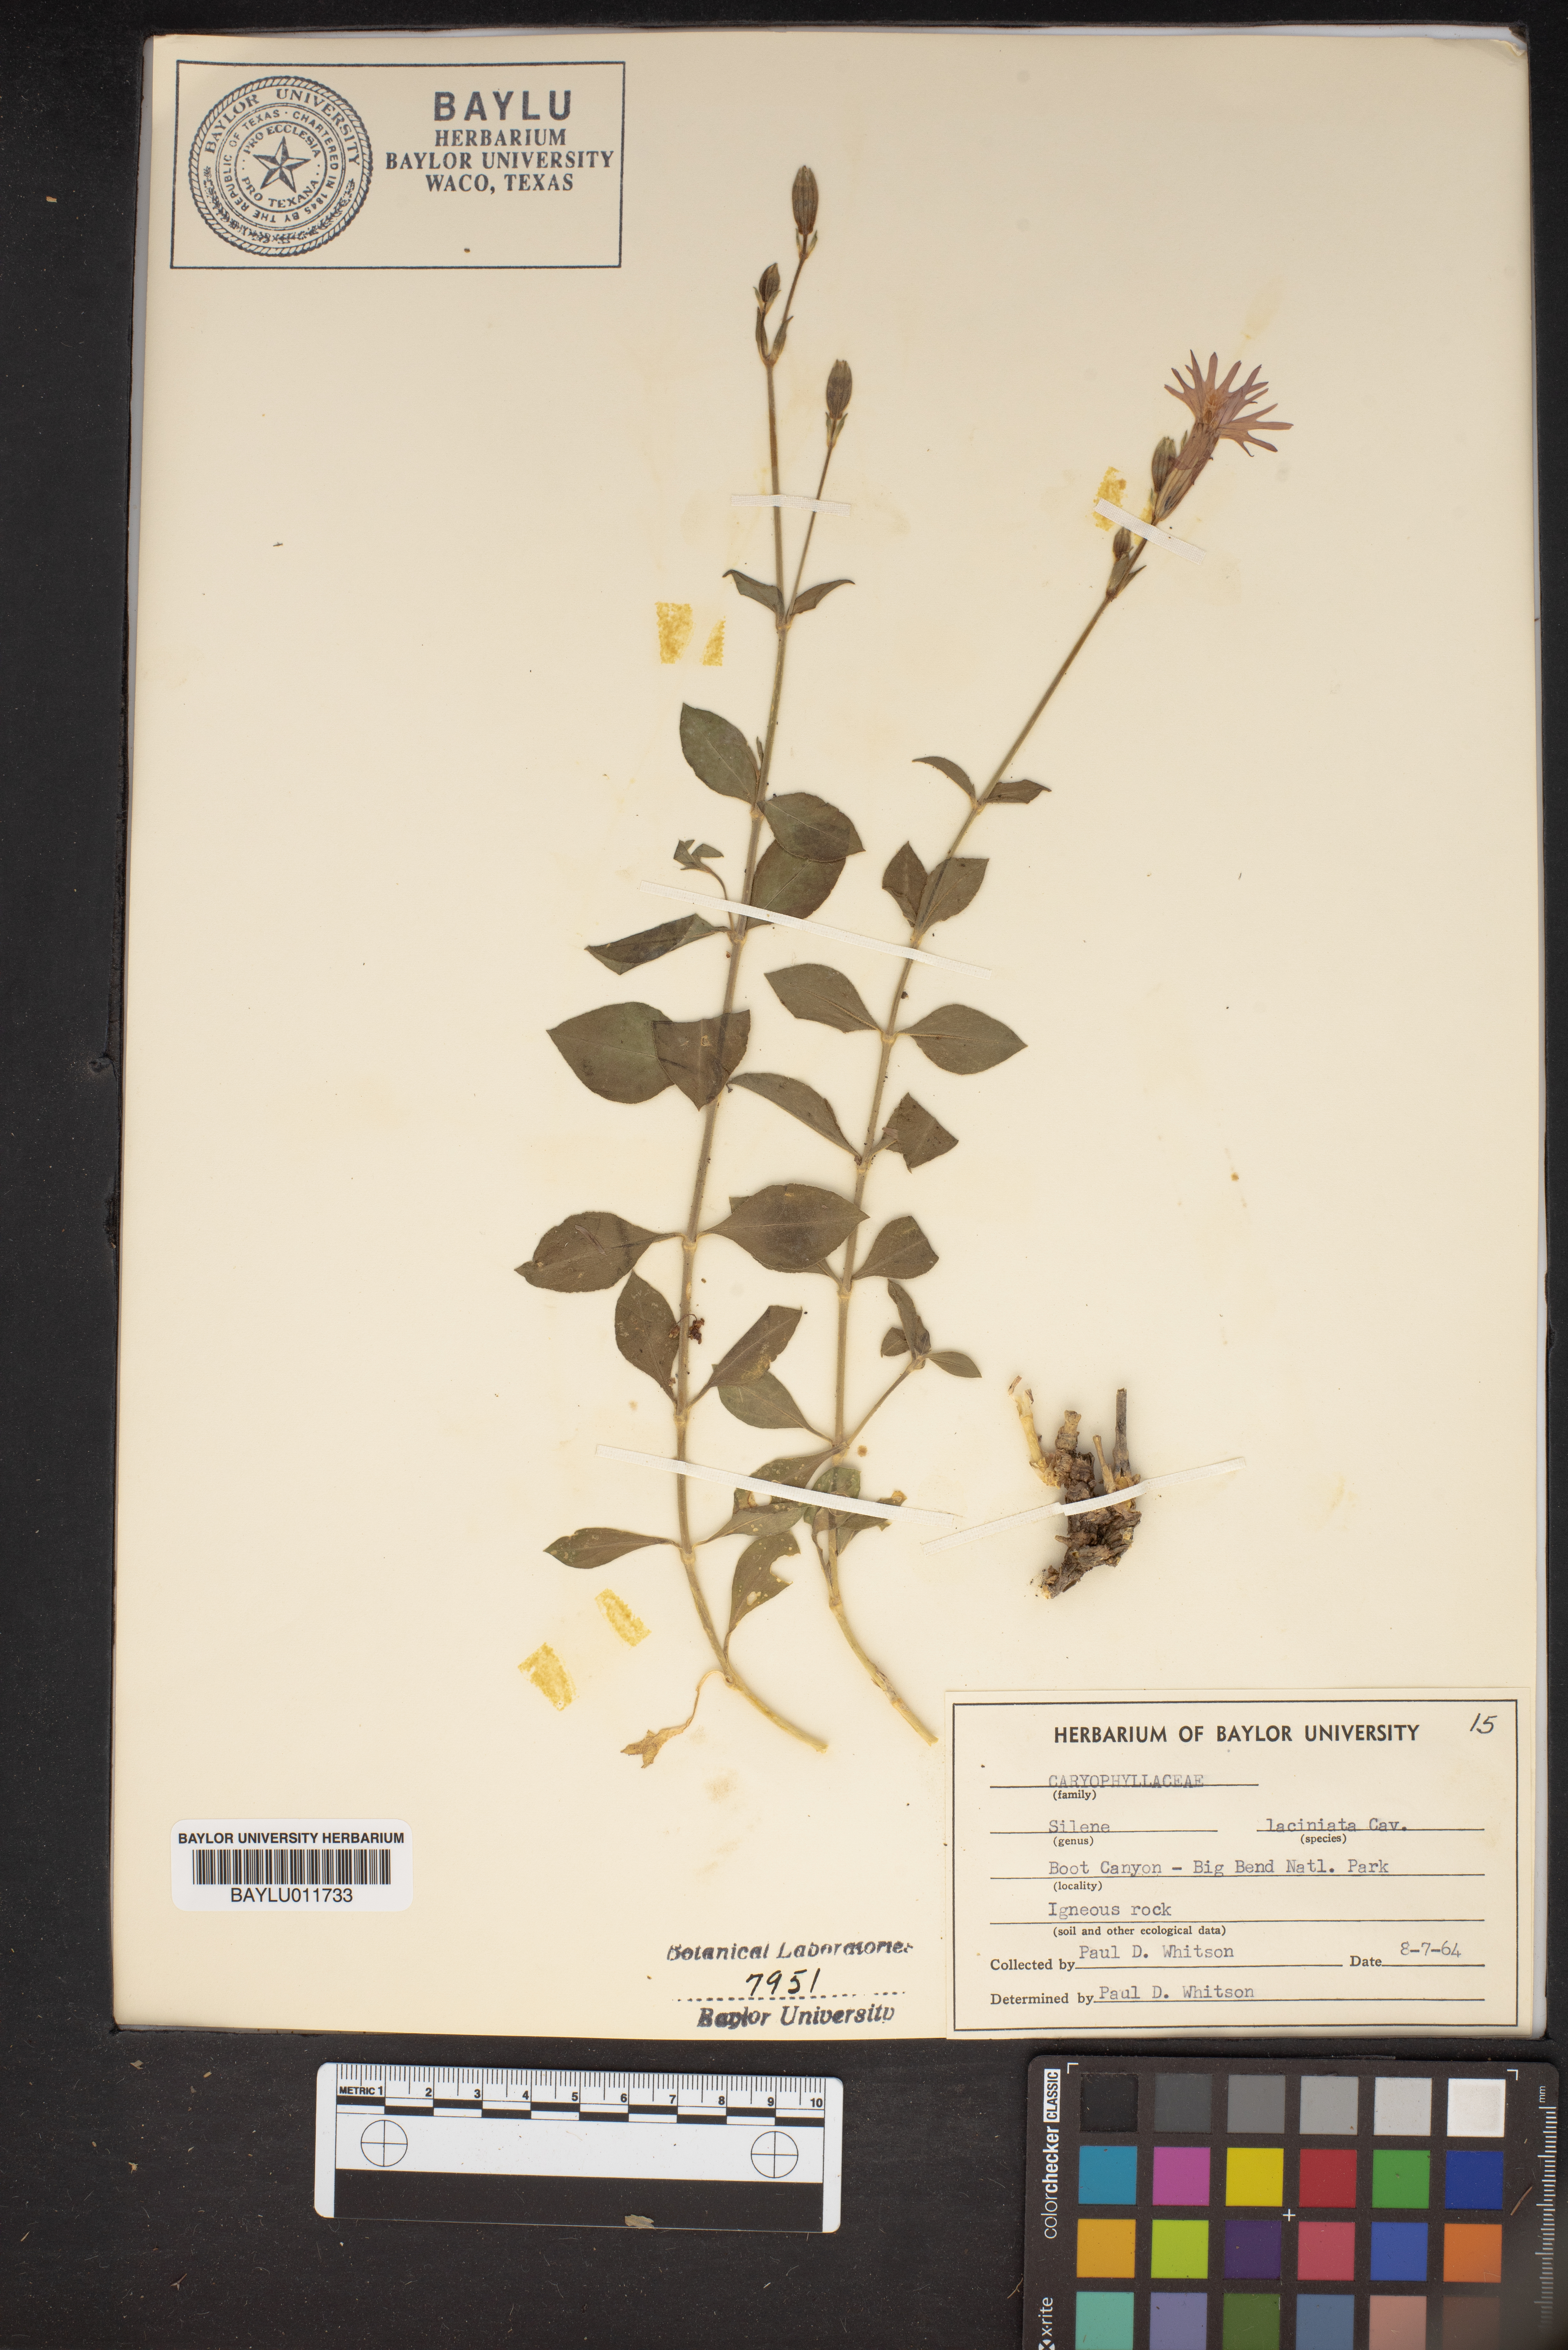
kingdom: Plantae
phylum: Tracheophyta
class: Magnoliopsida
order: Caryophyllales
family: Caryophyllaceae
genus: Silene
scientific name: Silene laciniata
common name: Indian-pink
